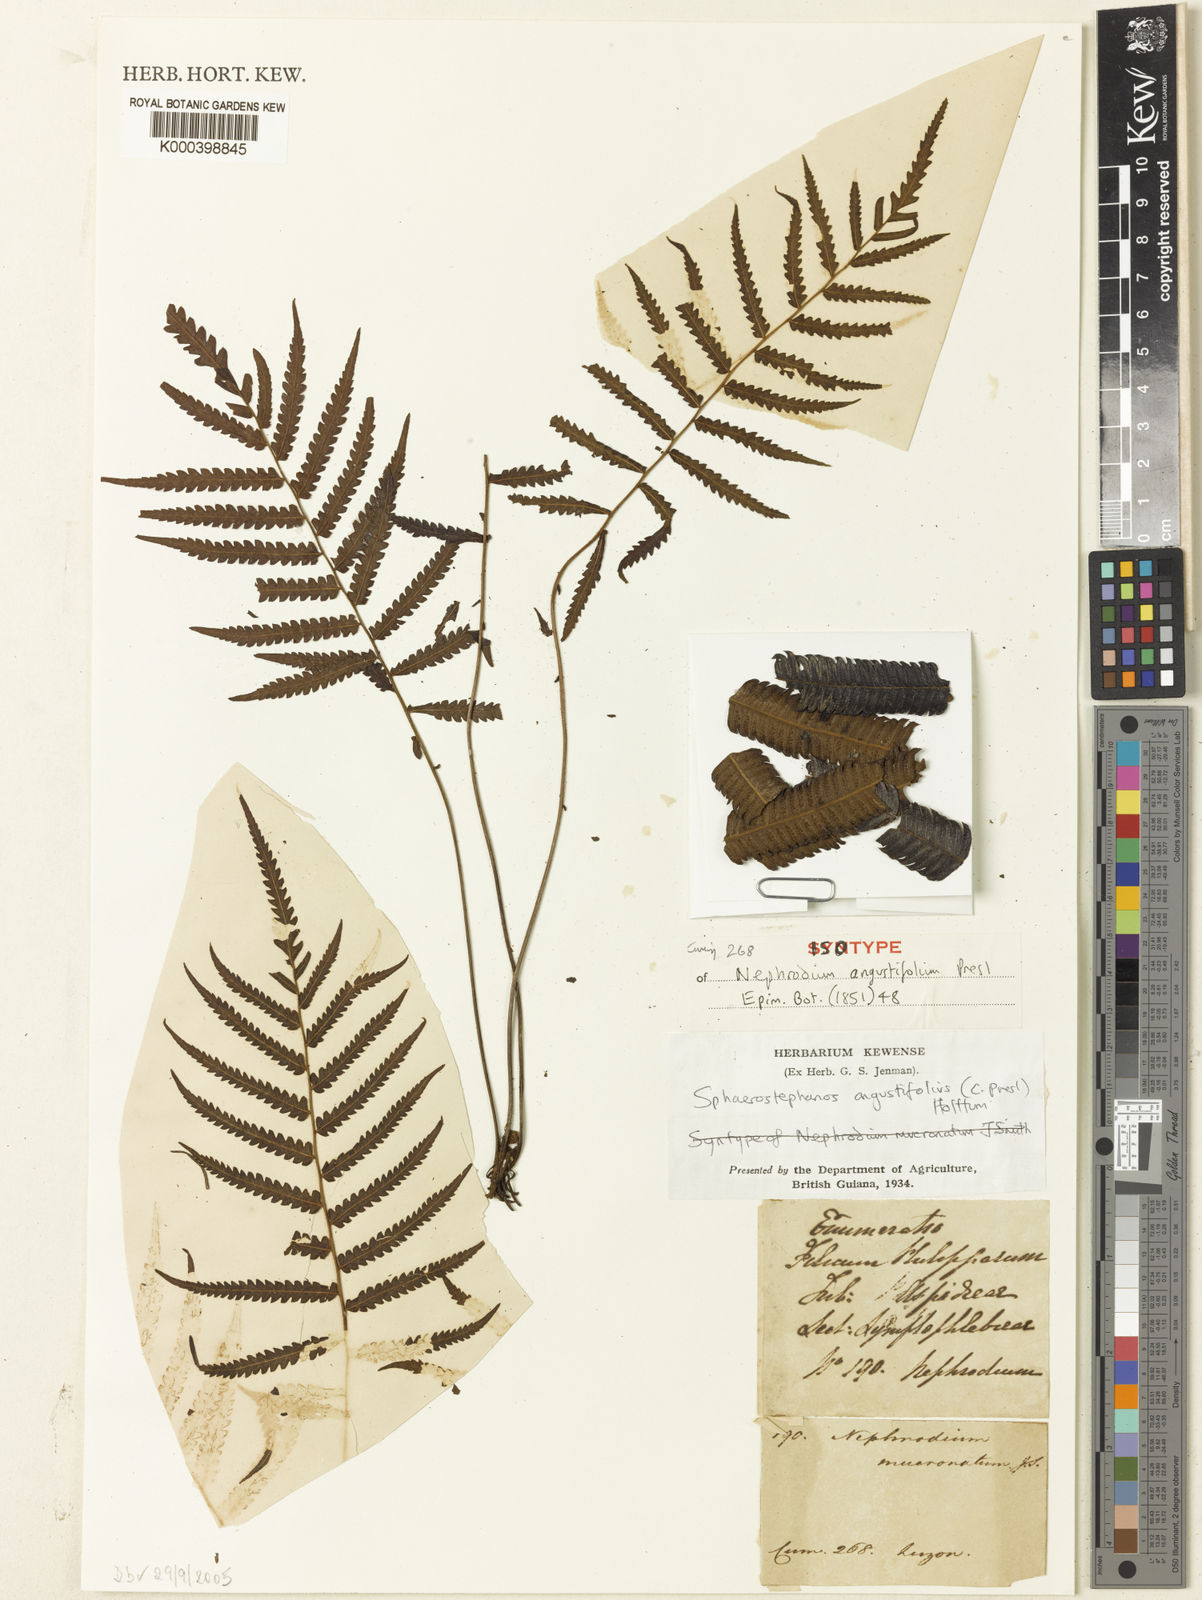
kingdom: Plantae
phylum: Tracheophyta
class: Polypodiopsida
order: Polypodiales
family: Thelypteridaceae
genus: Sphaerostephanos
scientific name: Sphaerostephanos angustifolius
